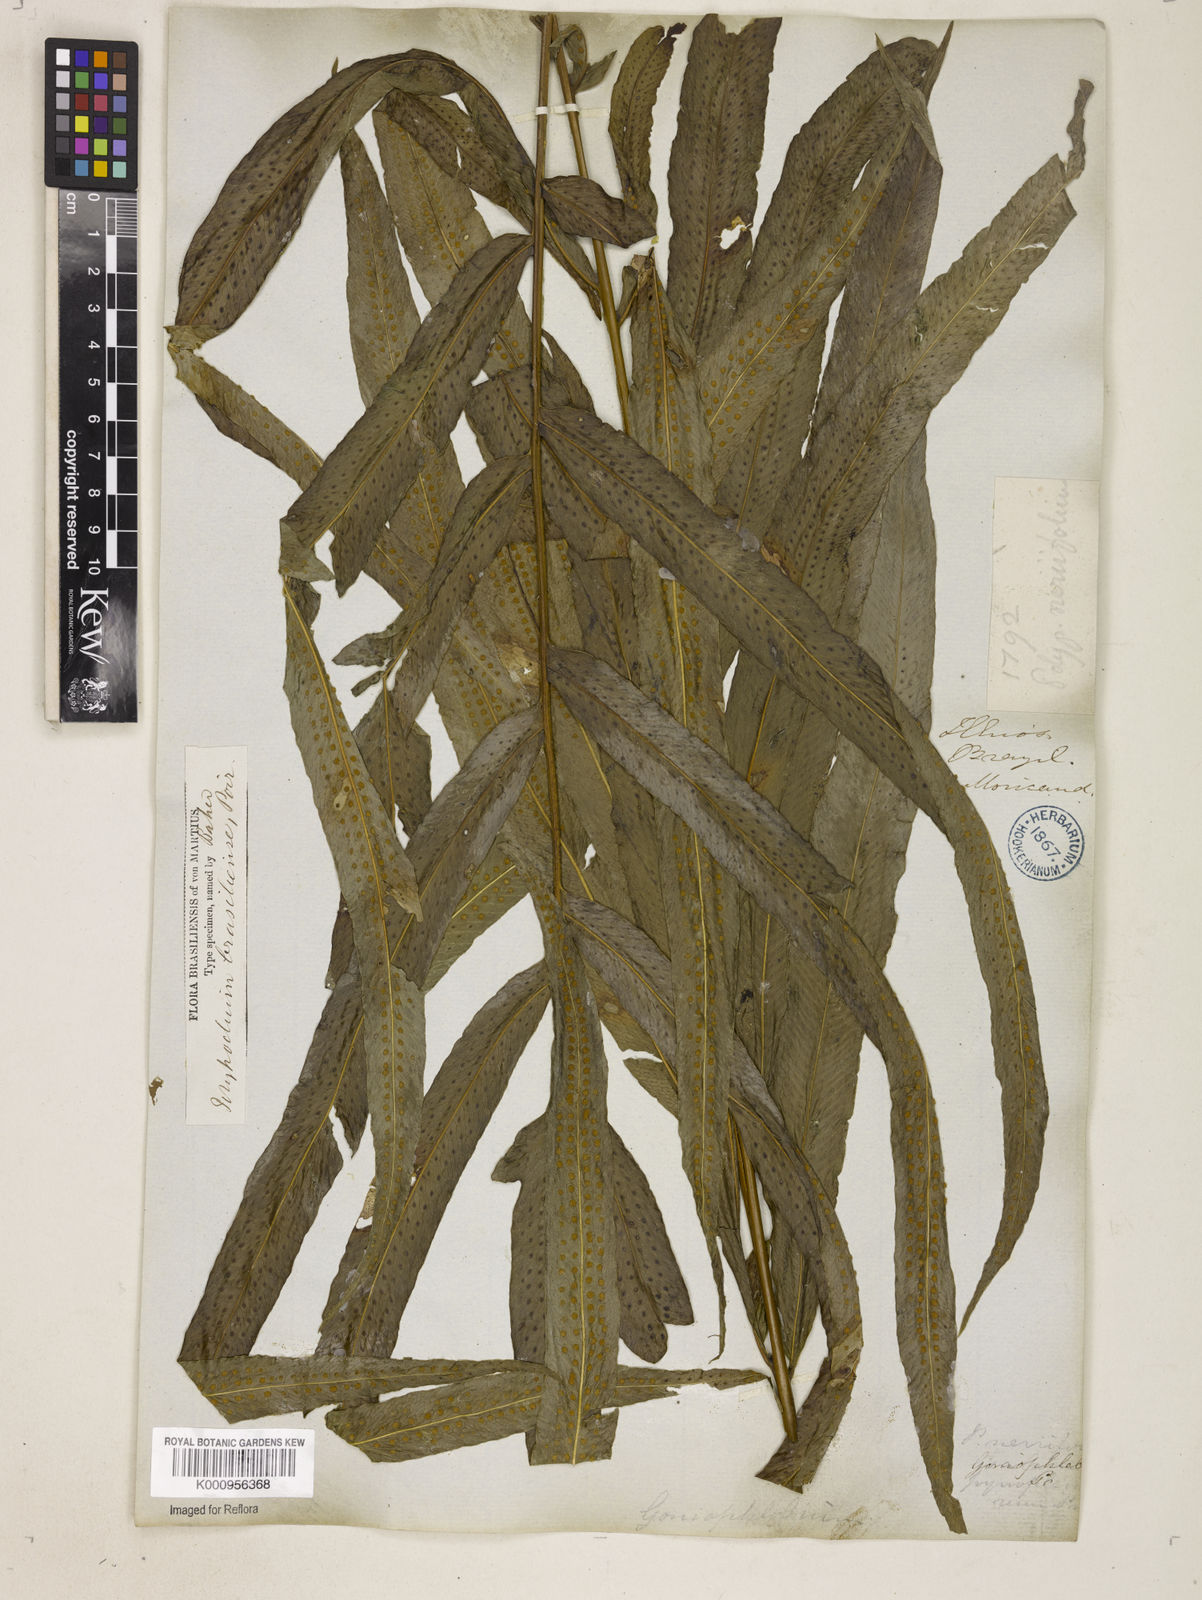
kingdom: Plantae
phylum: Tracheophyta
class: Polypodiopsida
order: Polypodiales
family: Polypodiaceae
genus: Serpocaulon
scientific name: Serpocaulon triseriale
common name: Angle-vein fern
